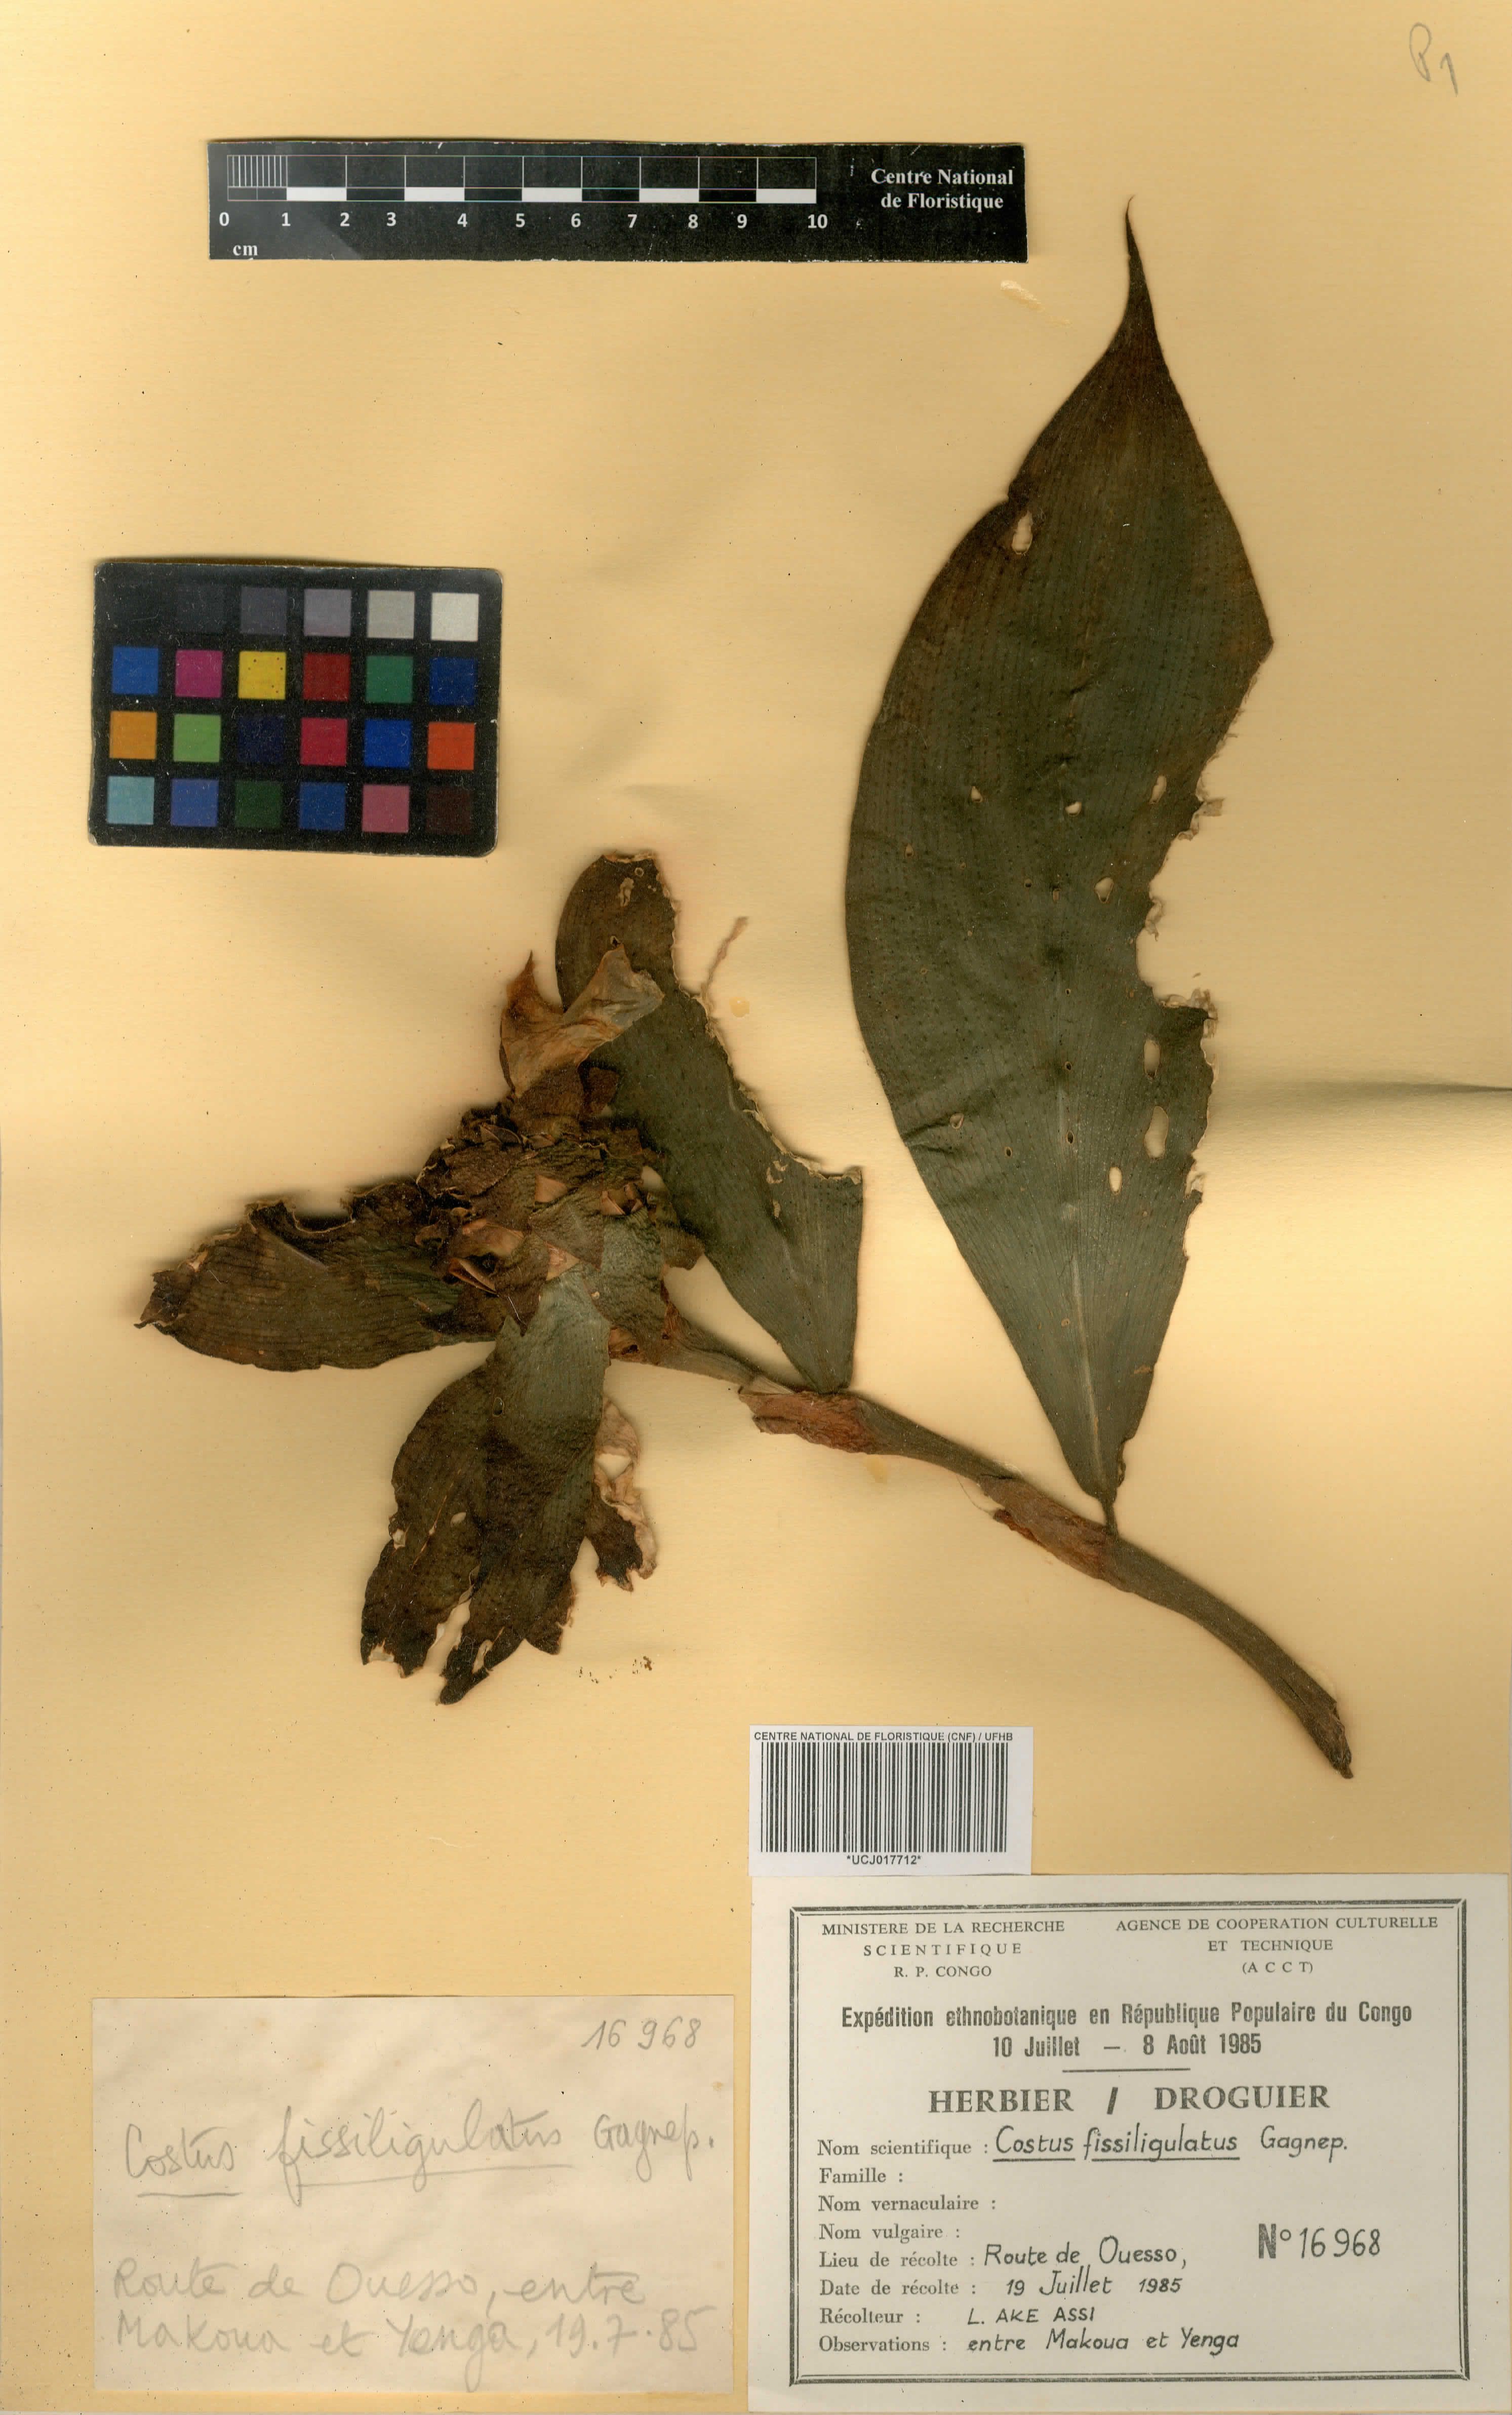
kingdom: Plantae
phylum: Tracheophyta
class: Liliopsida
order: Zingiberales
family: Costaceae
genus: Costus
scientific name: Costus phyllocephalus
